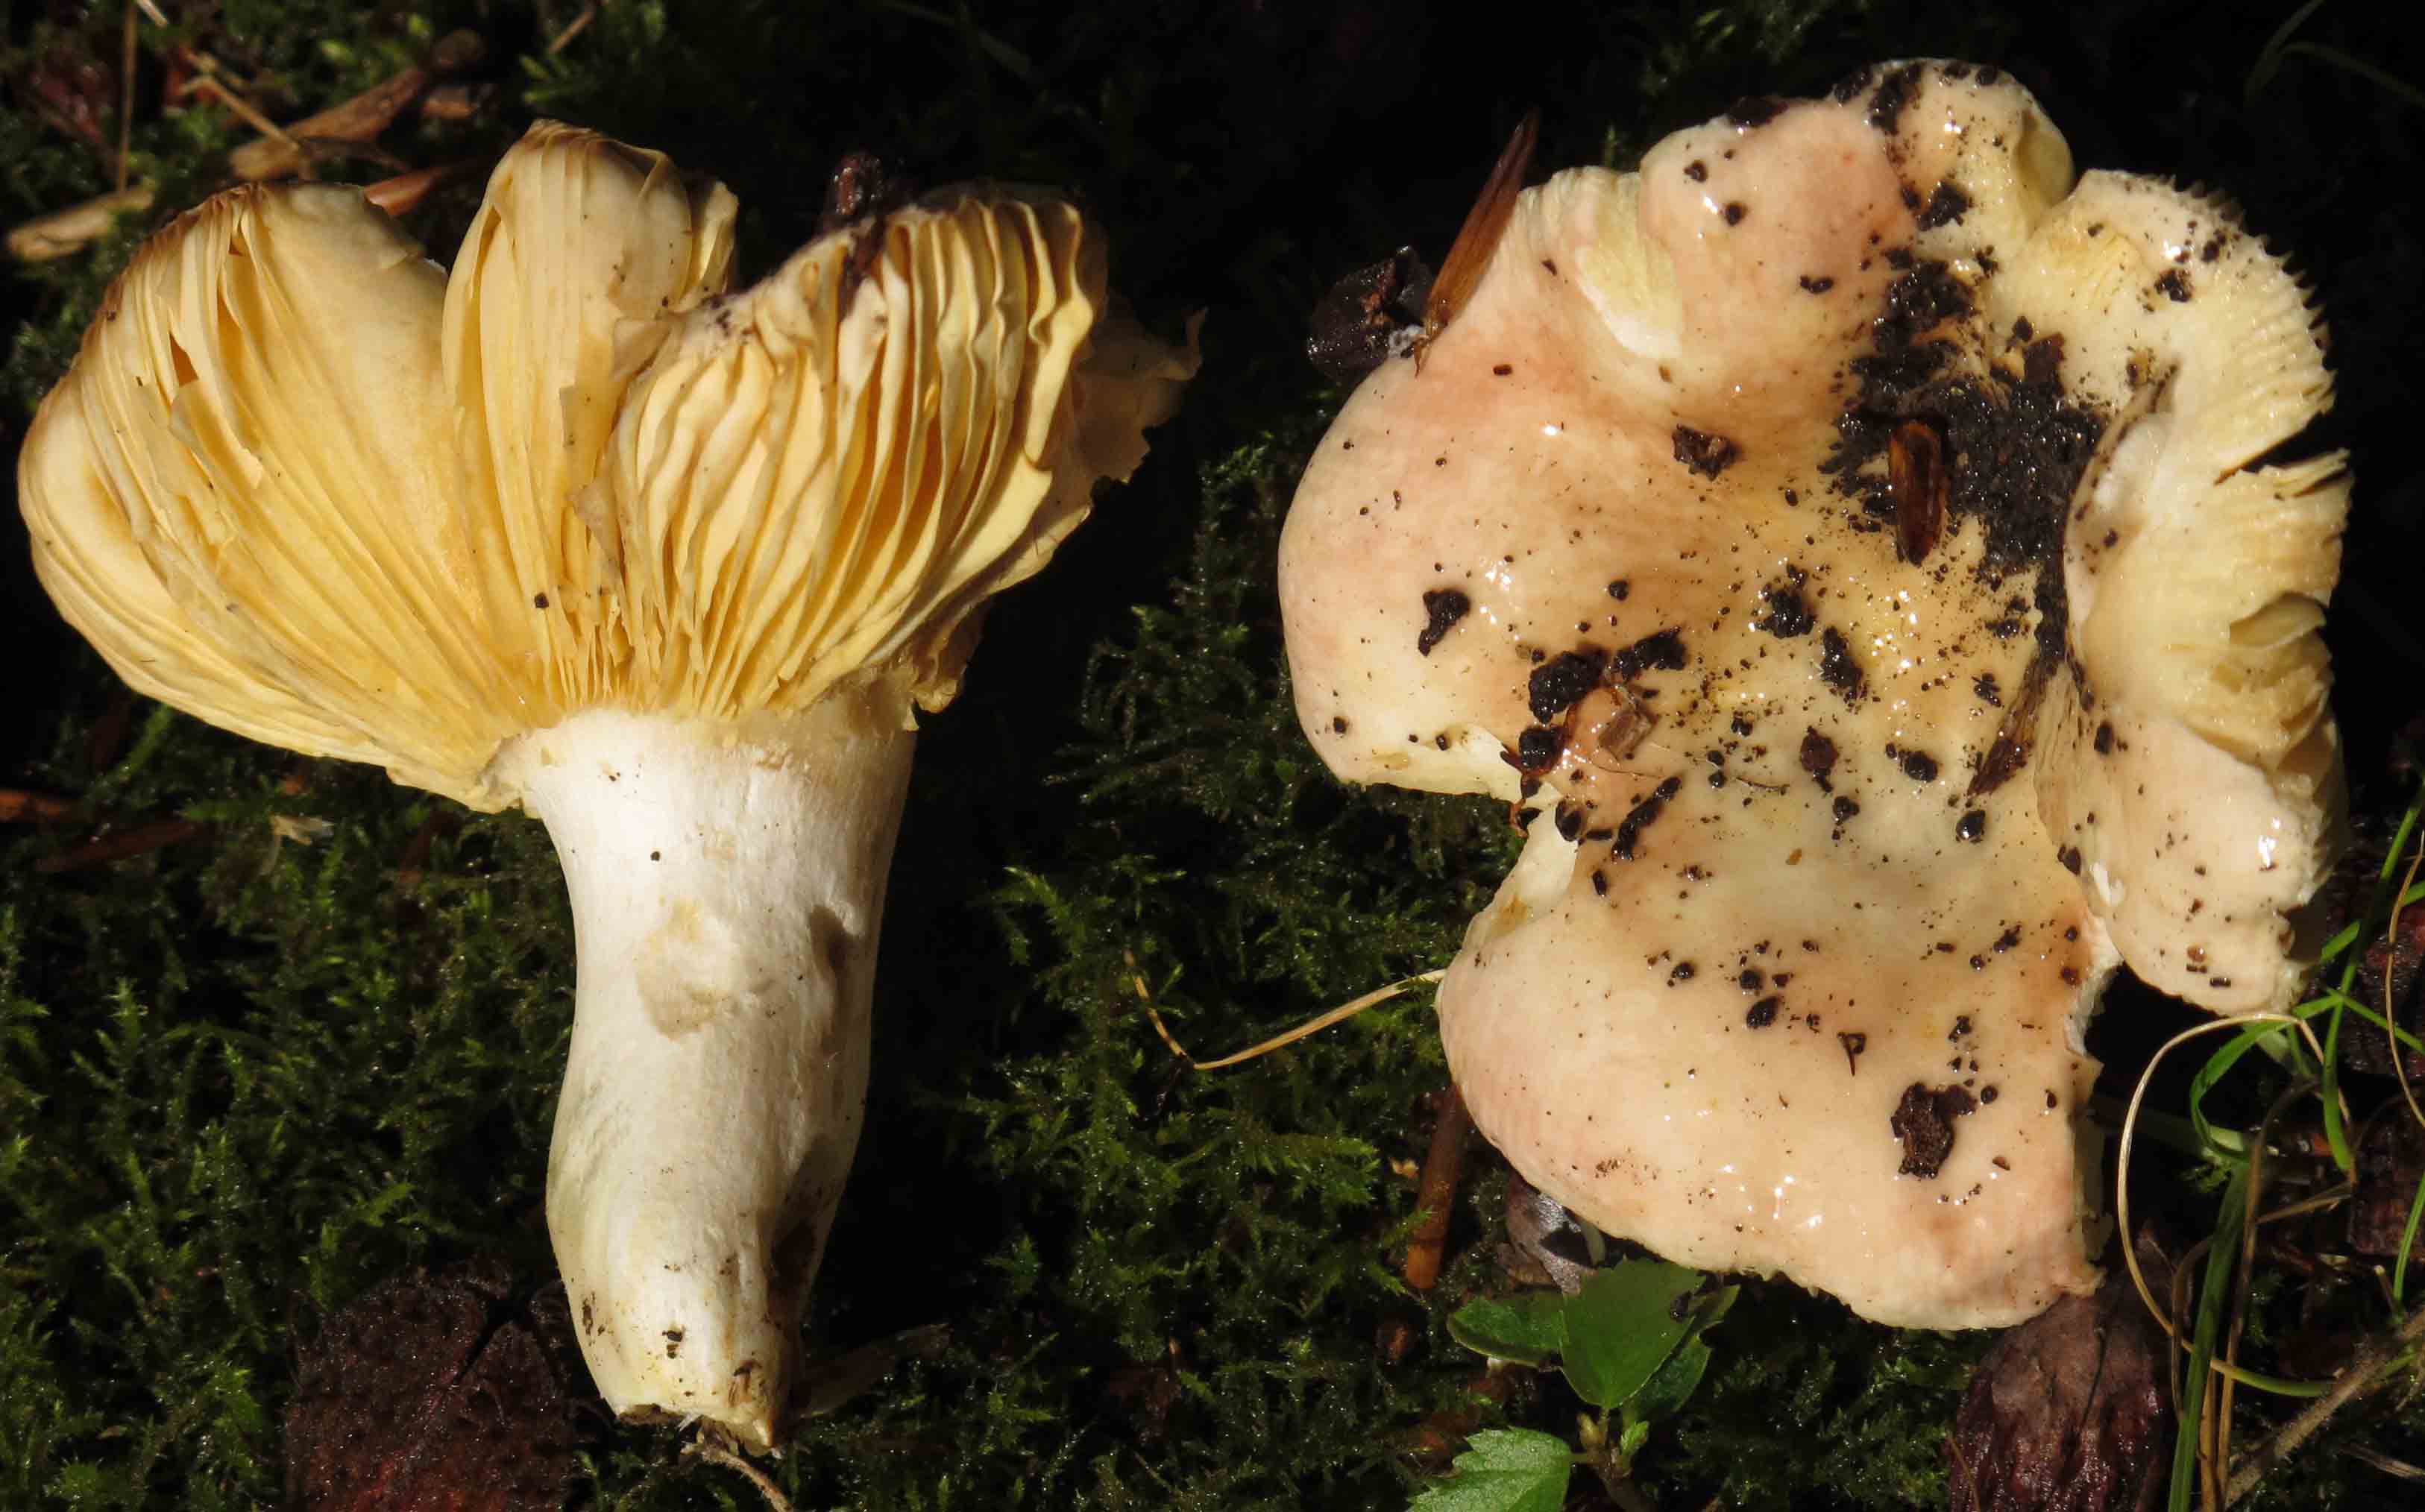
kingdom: Fungi
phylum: Basidiomycota
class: Agaricomycetes
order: Russulales
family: Russulaceae
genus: Russula
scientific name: Russula veternosa
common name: blødkødet skørhat
